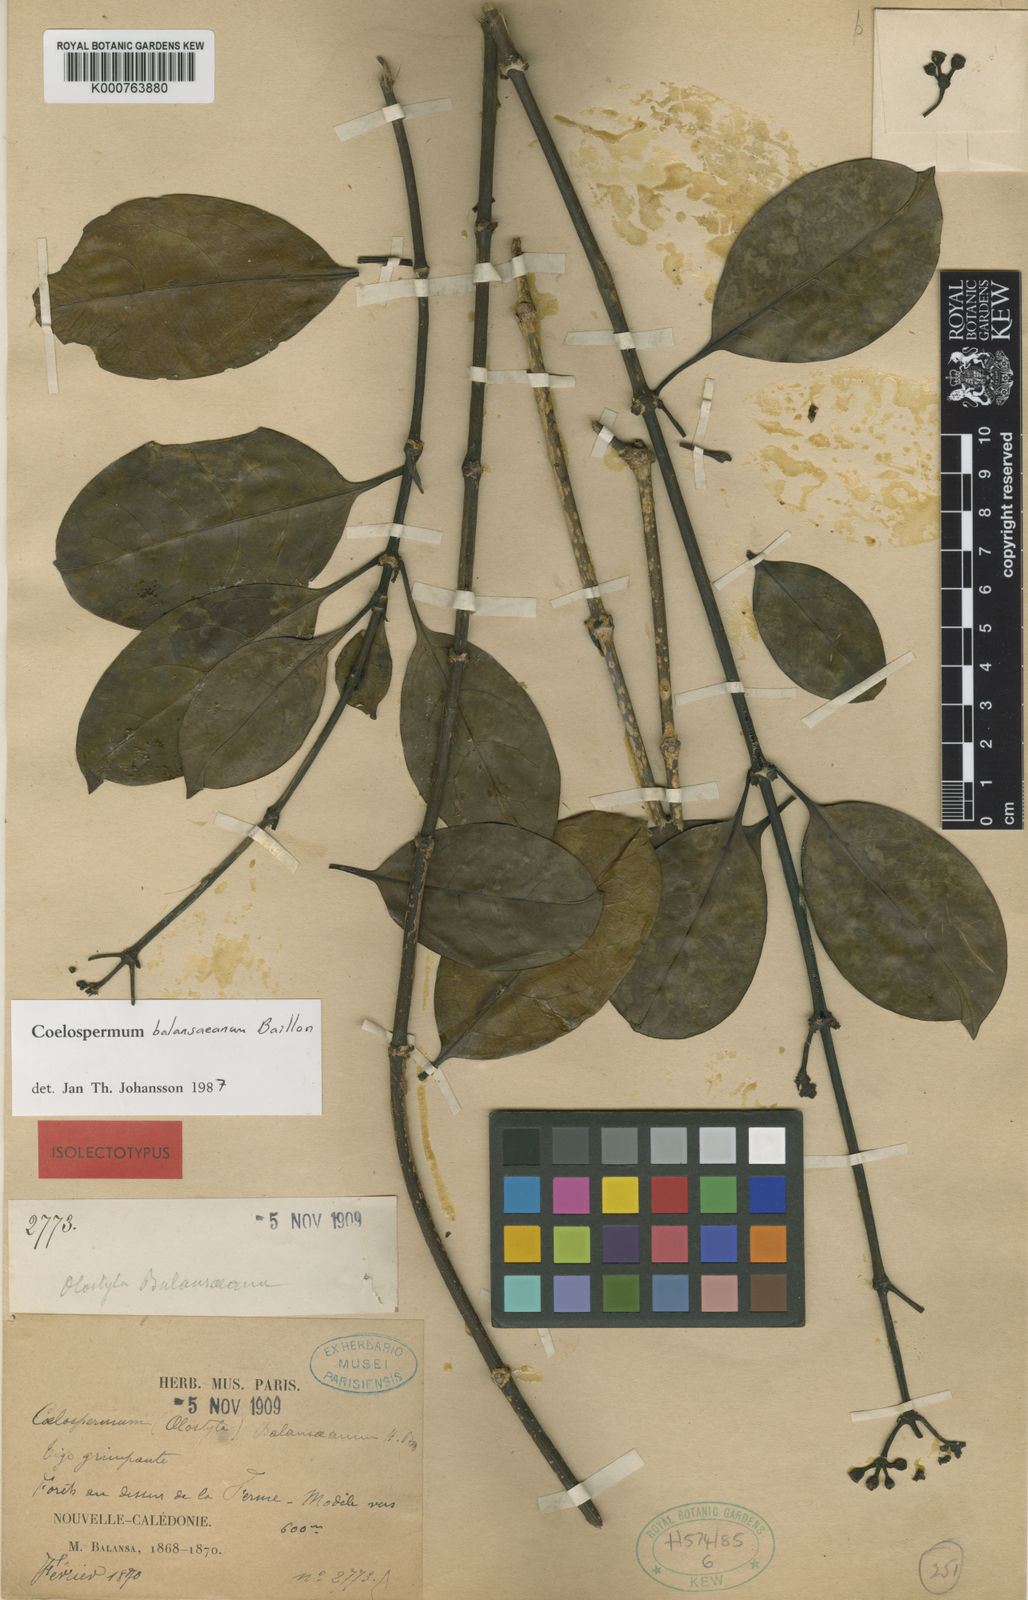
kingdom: Plantae
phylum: Tracheophyta
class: Magnoliopsida
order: Gentianales
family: Rubiaceae
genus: Coelospermum
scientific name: Coelospermum balansanum
